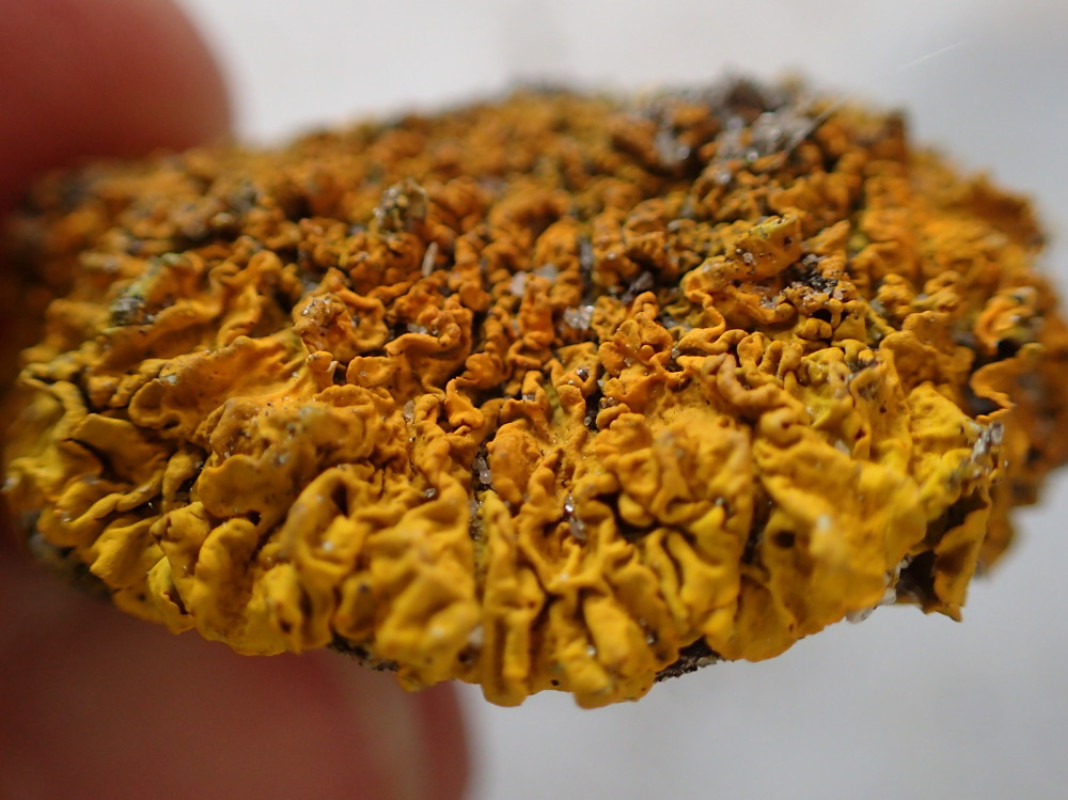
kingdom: Fungi
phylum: Ascomycota
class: Lecanoromycetes
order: Teloschistales
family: Teloschistaceae
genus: Xanthoria
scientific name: Xanthoria parietina
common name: almindelig væggelav
